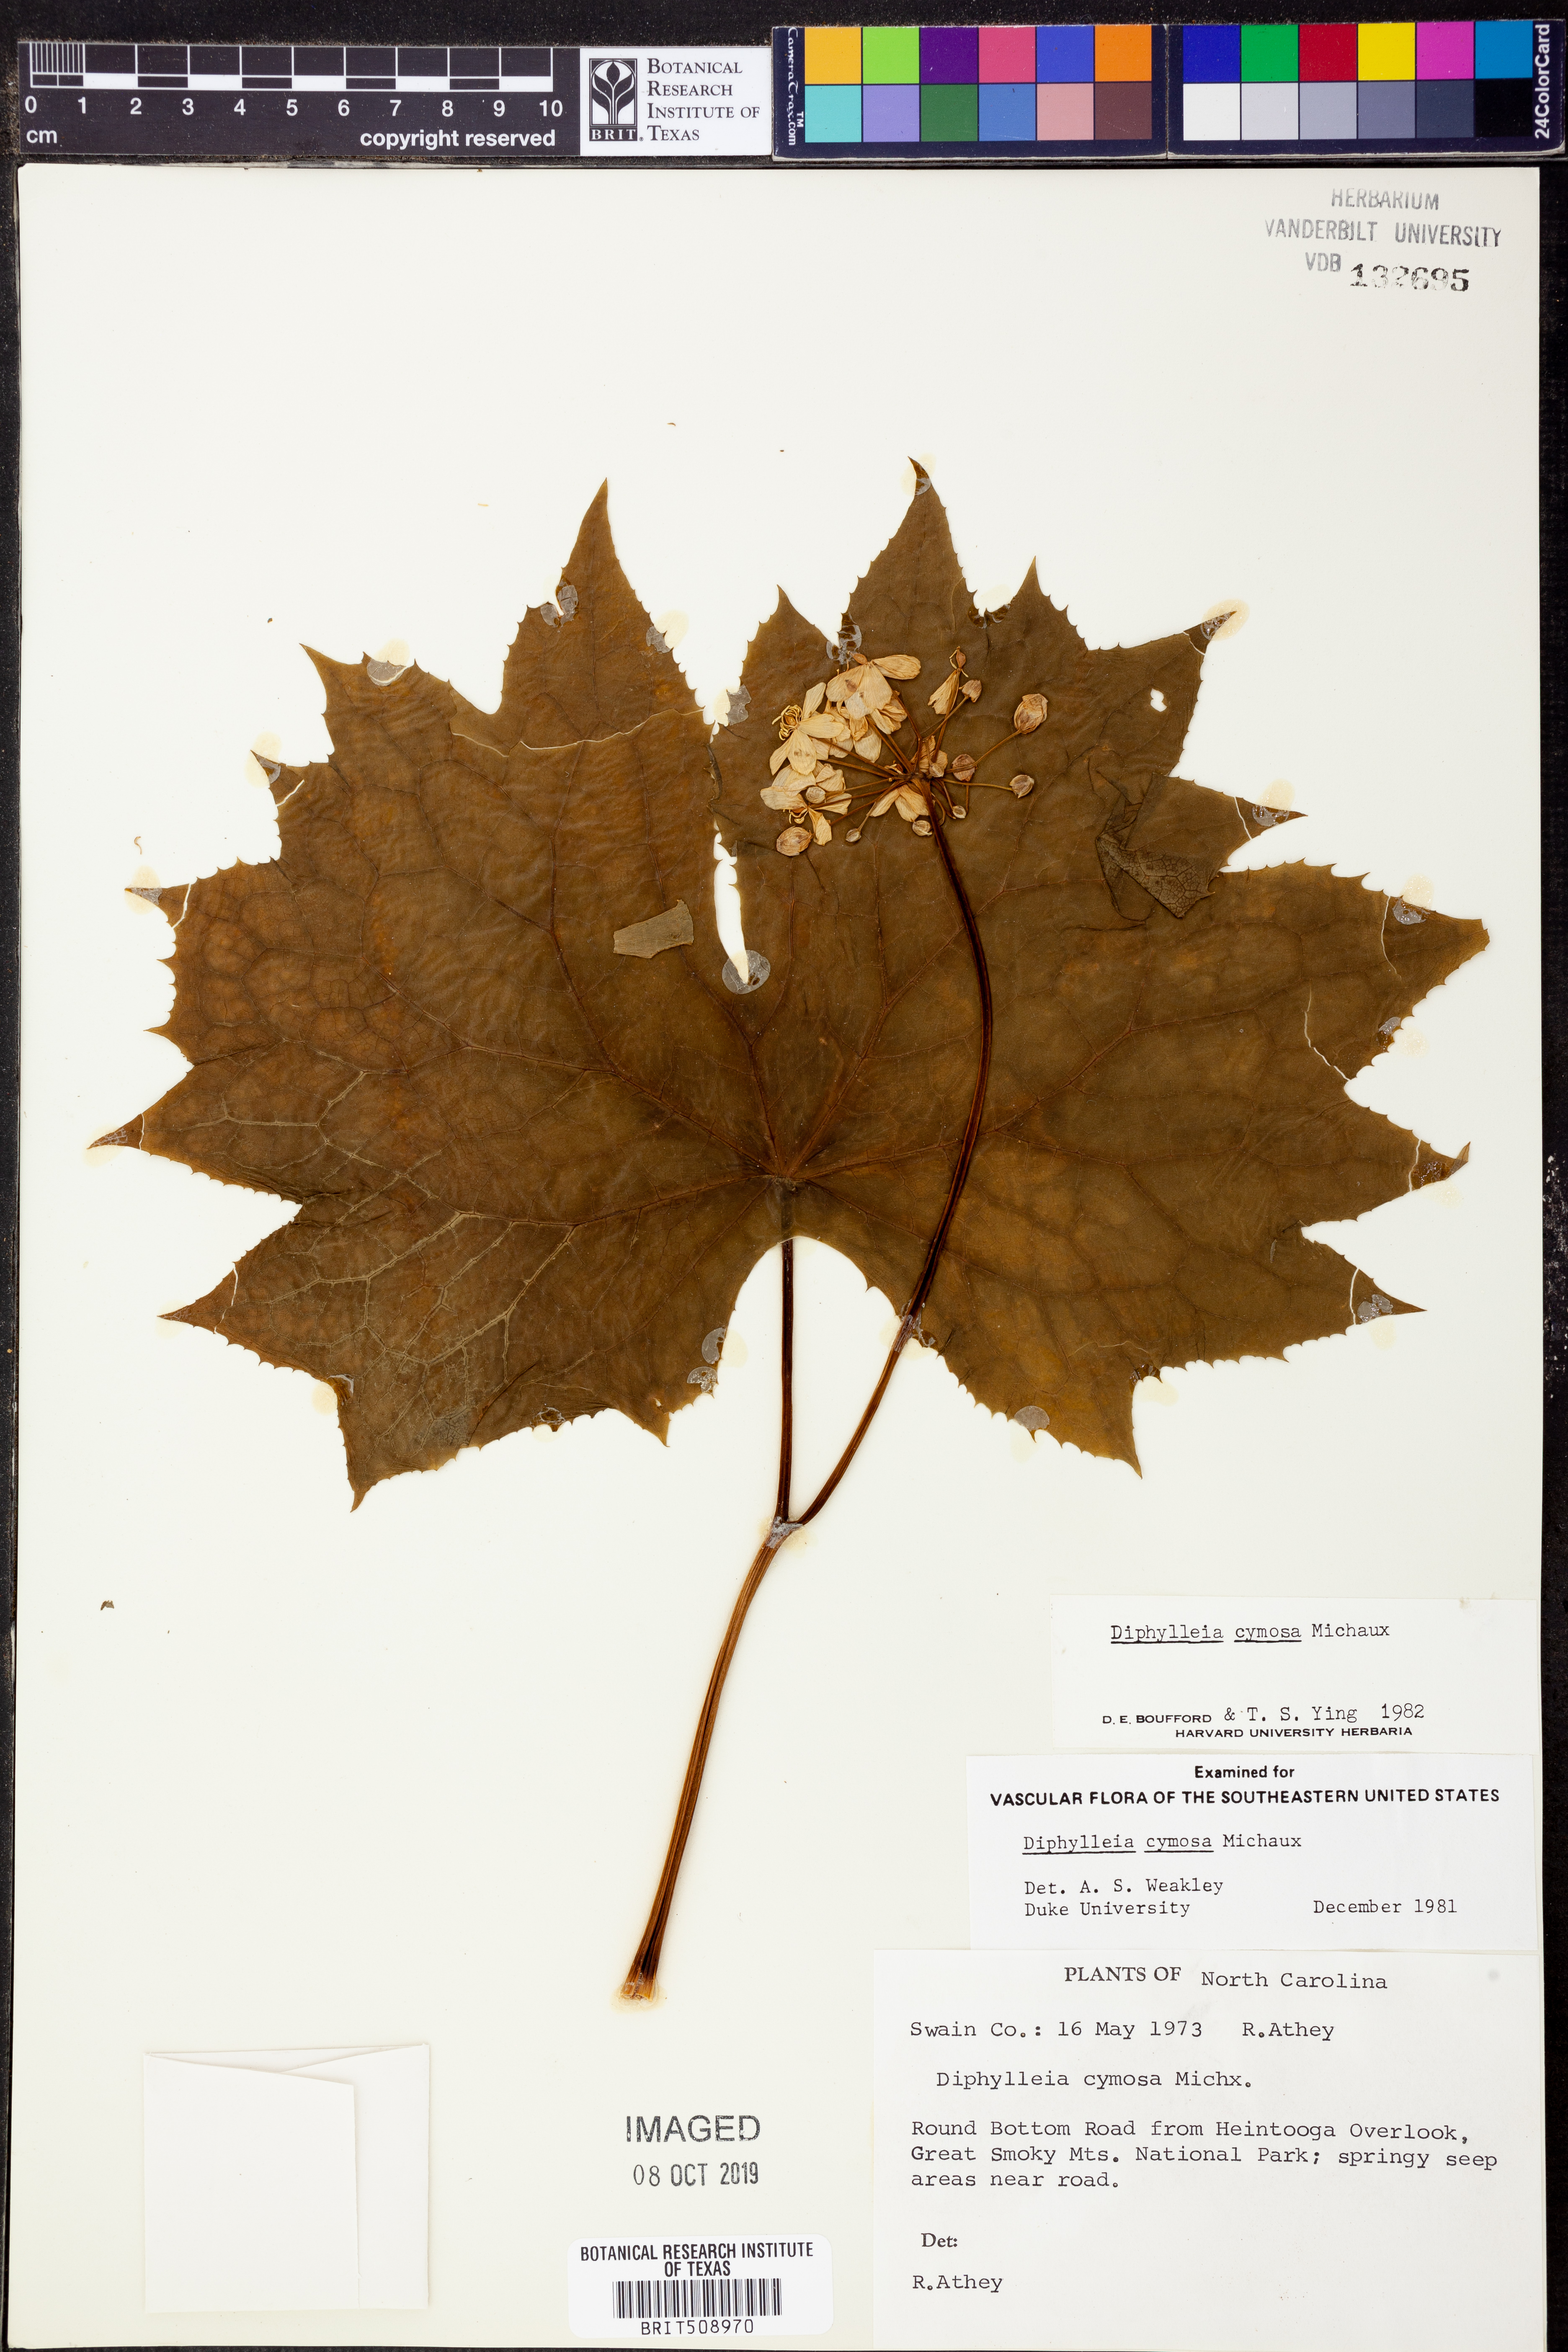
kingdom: Plantae
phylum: Tracheophyta
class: Magnoliopsida
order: Ranunculales
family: Berberidaceae
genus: Diphylleia
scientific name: Diphylleia cymosa
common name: Umbrella-leaf
